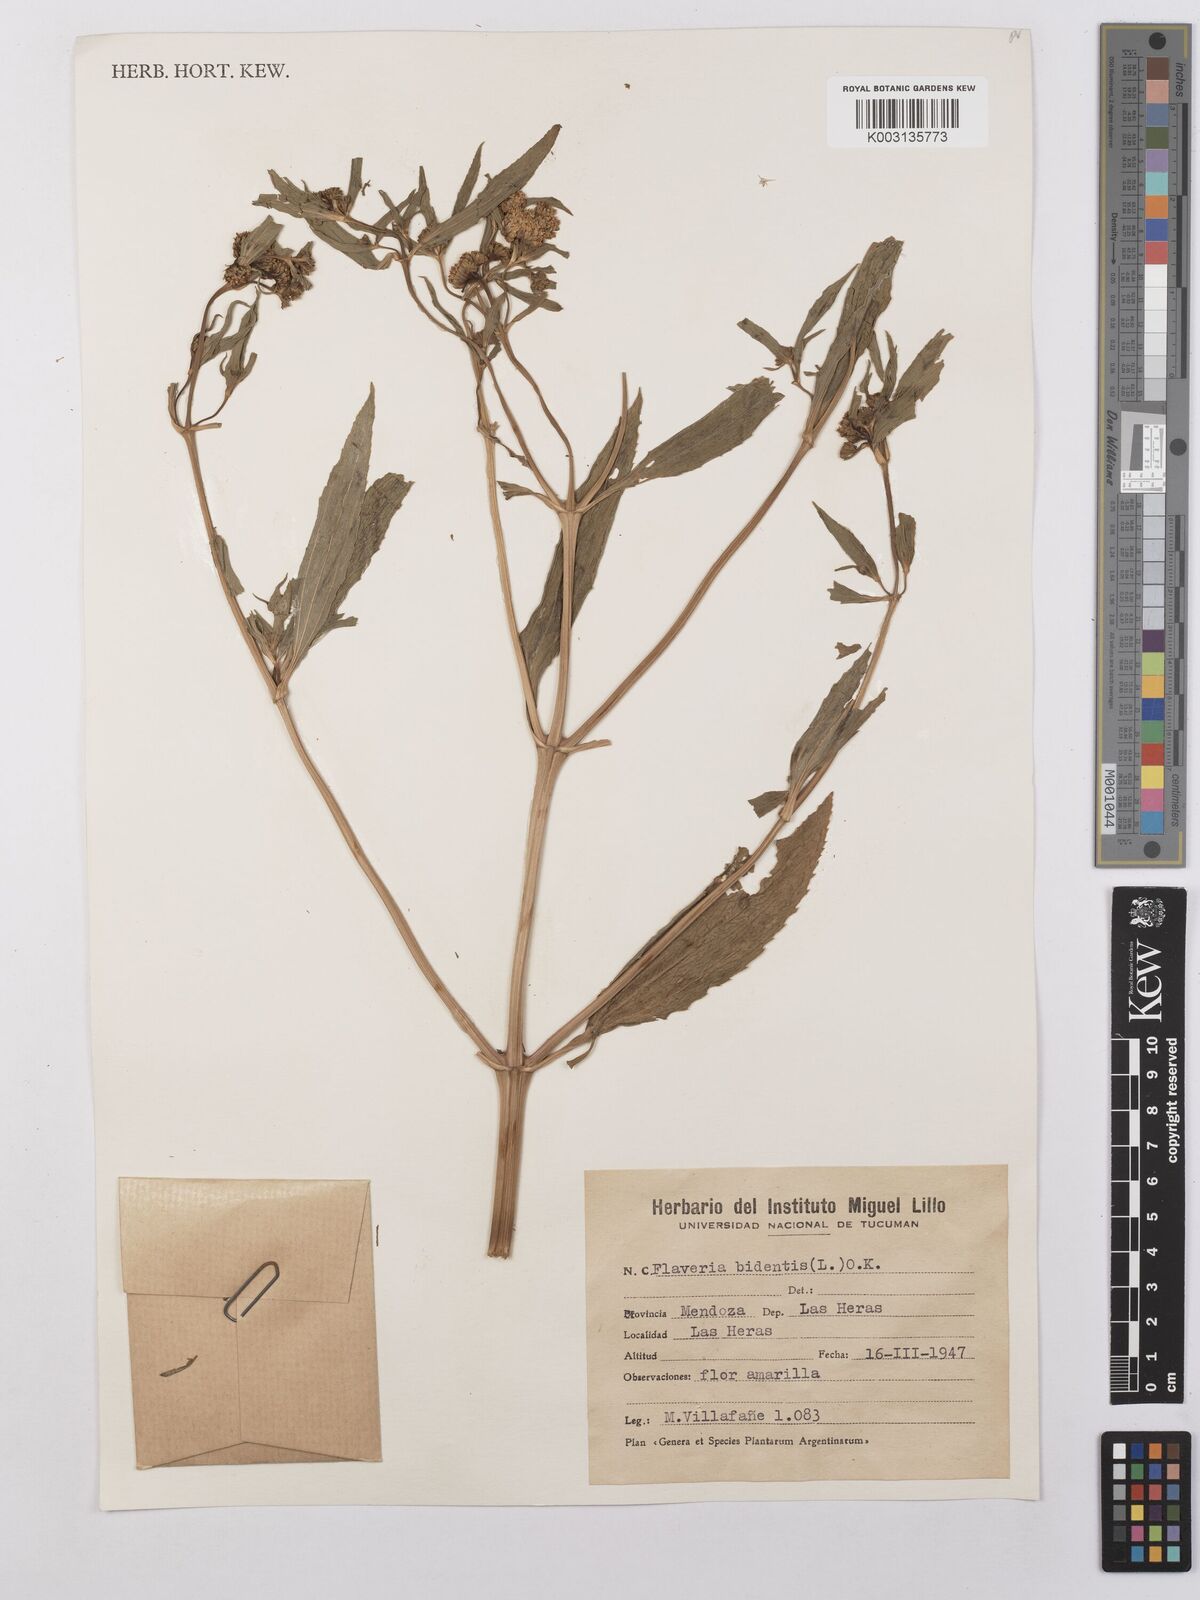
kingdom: Plantae
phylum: Tracheophyta
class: Magnoliopsida
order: Asterales
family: Asteraceae
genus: Flaveria
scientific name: Flaveria bidentis
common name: Coastal plain yellowtops
